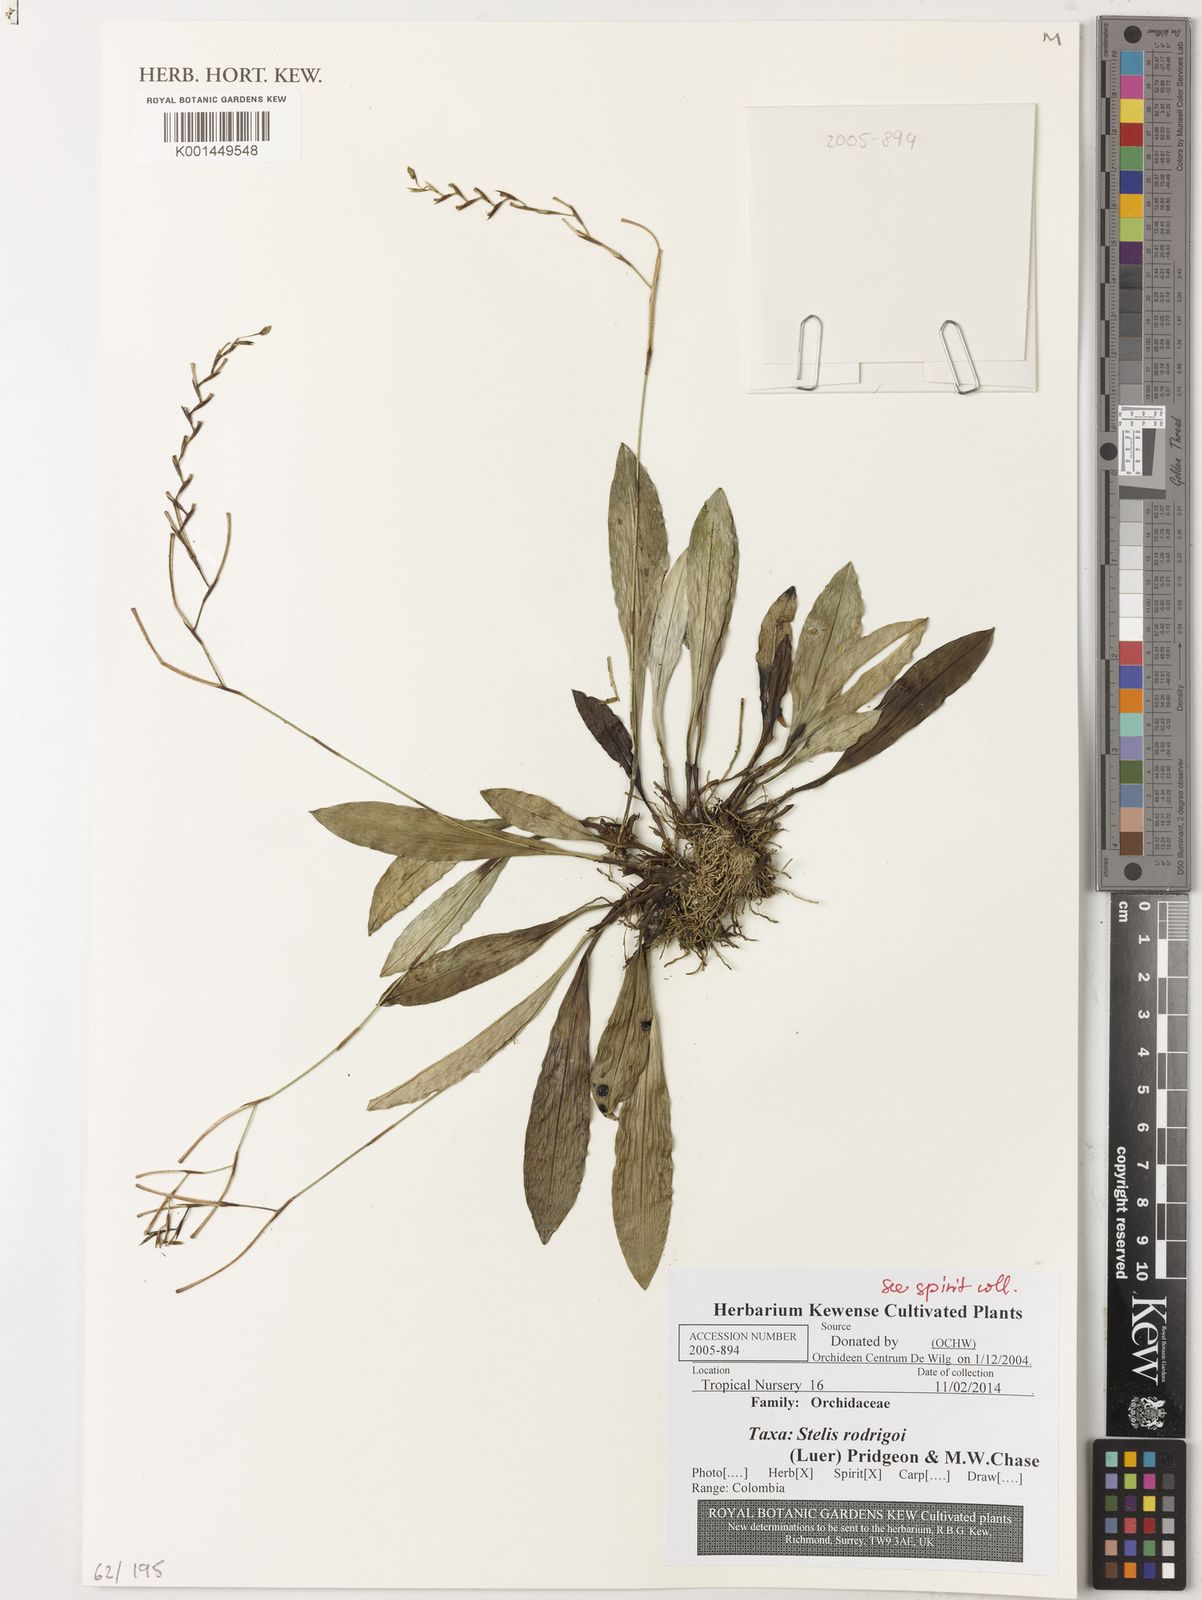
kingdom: Plantae
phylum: Tracheophyta
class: Liliopsida
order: Asparagales
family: Orchidaceae
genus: Stelis
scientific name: Stelis rodrigoi
